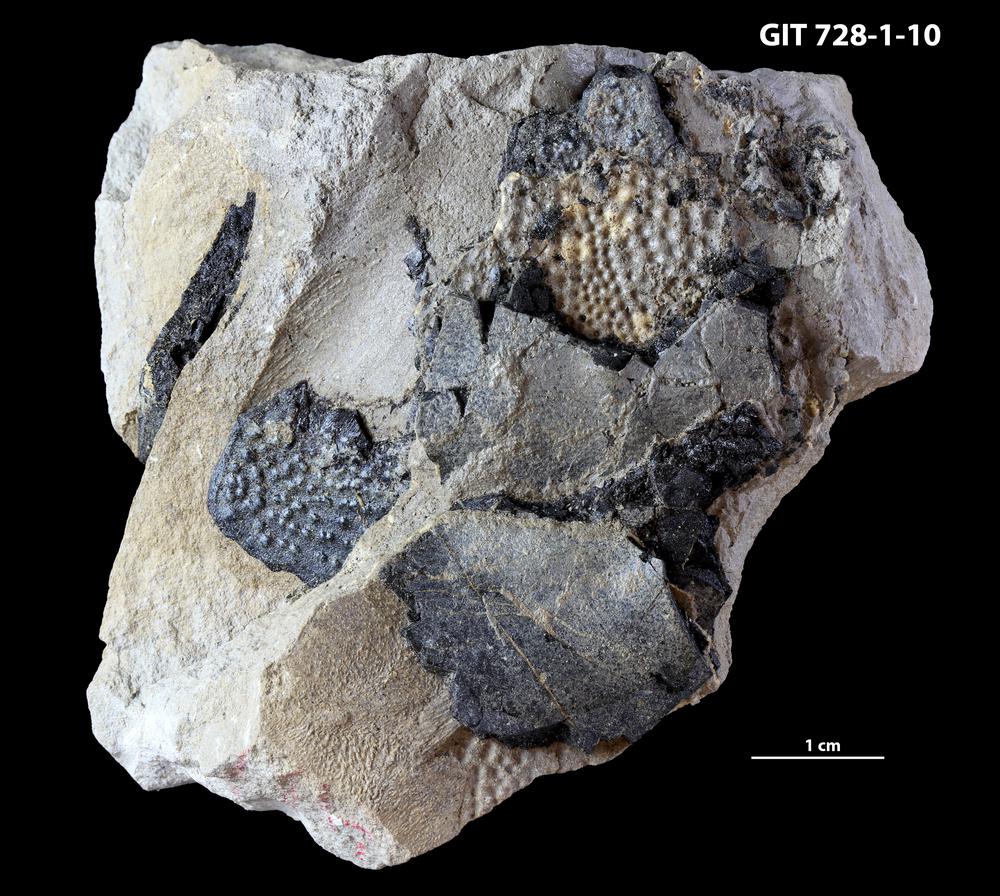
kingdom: Animalia
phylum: Chordata
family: Coccosteidae
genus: Watsonosteus
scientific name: Watsonosteus
